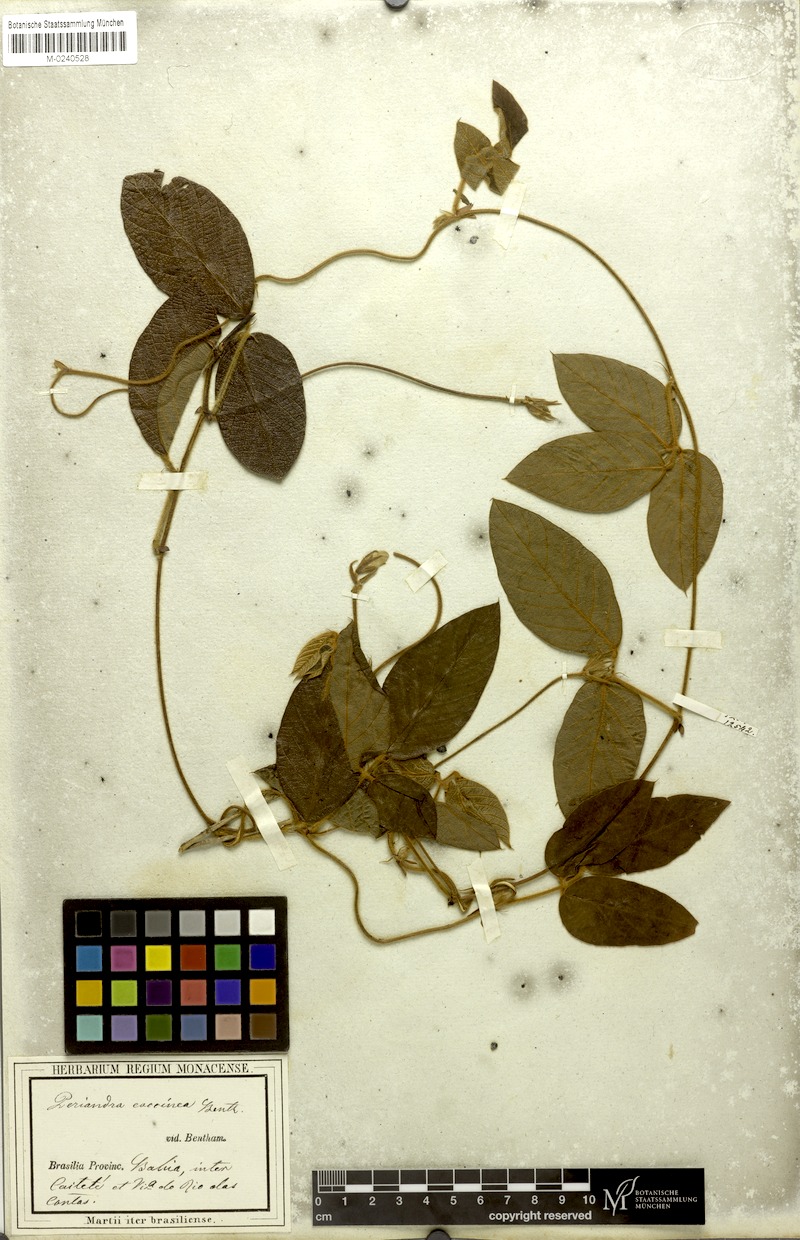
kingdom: Plantae
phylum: Tracheophyta
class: Magnoliopsida
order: Fabales
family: Fabaceae
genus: Periandra
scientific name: Periandra coccinea
